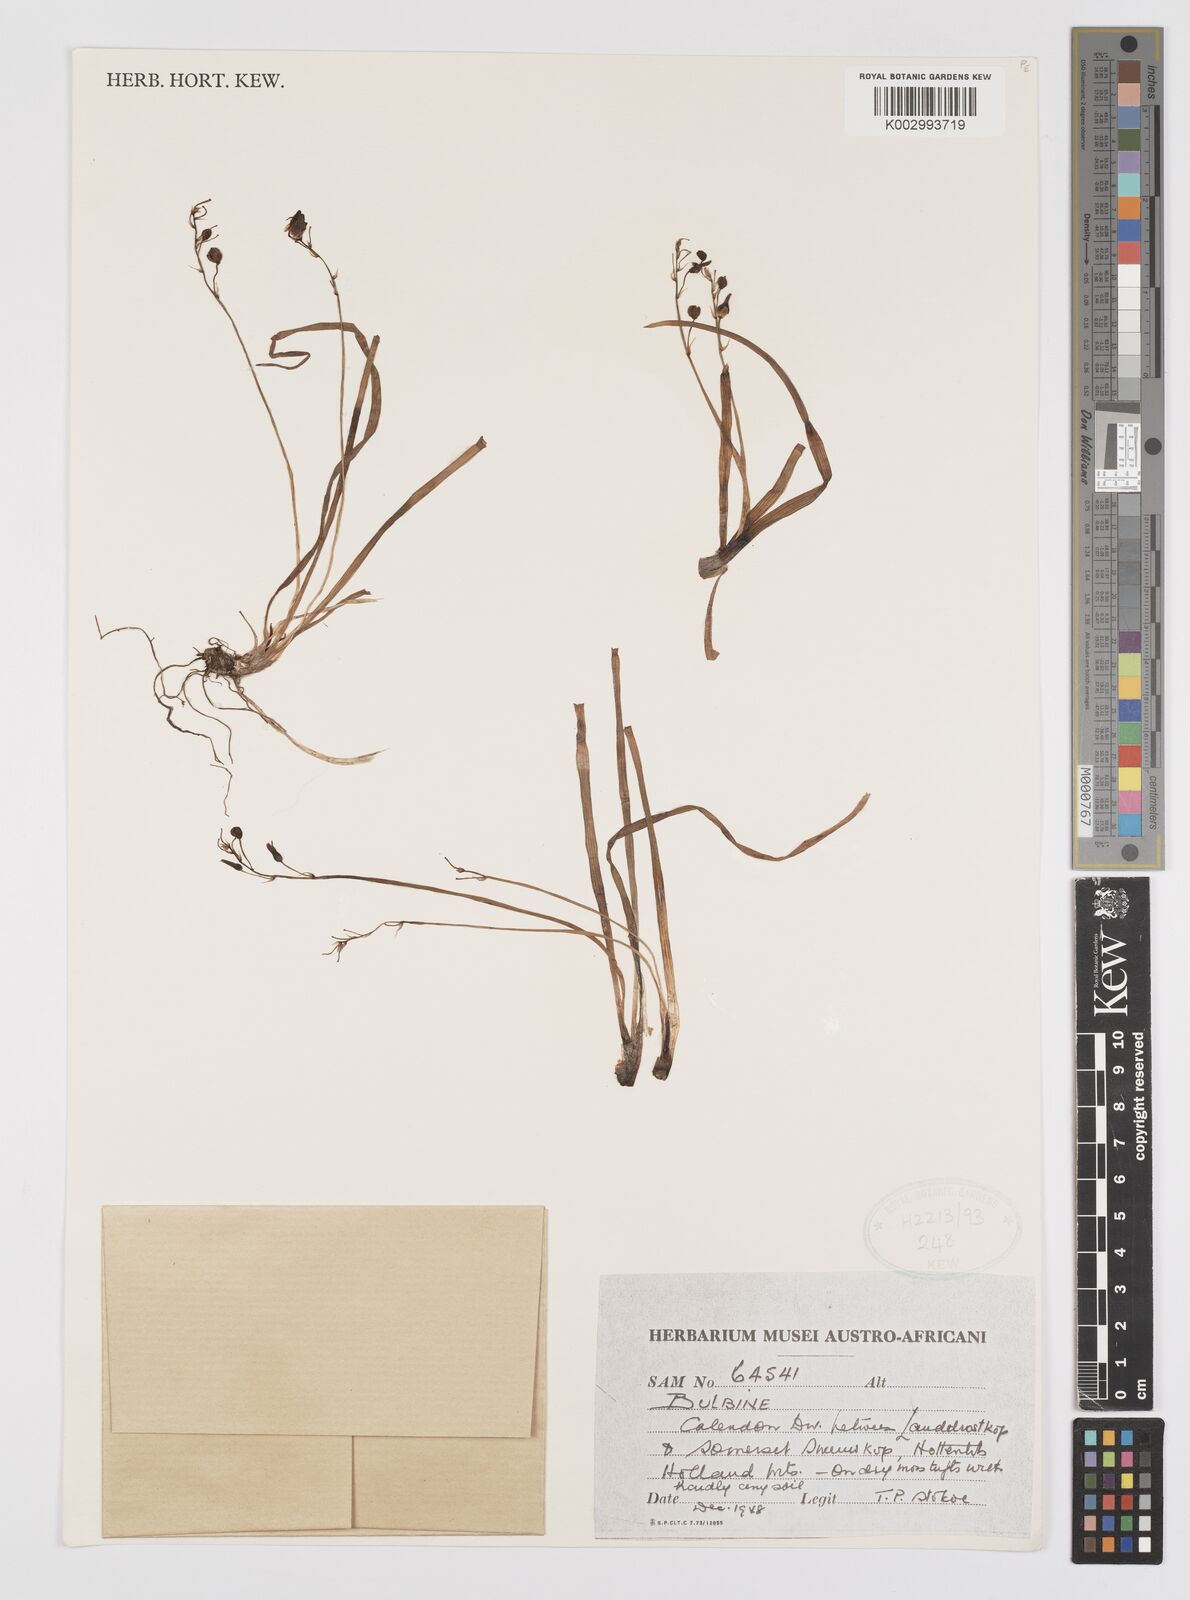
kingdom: Plantae
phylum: Tracheophyta
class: Liliopsida
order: Asparagales
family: Amaryllidaceae
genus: Crinum
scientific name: Crinum
